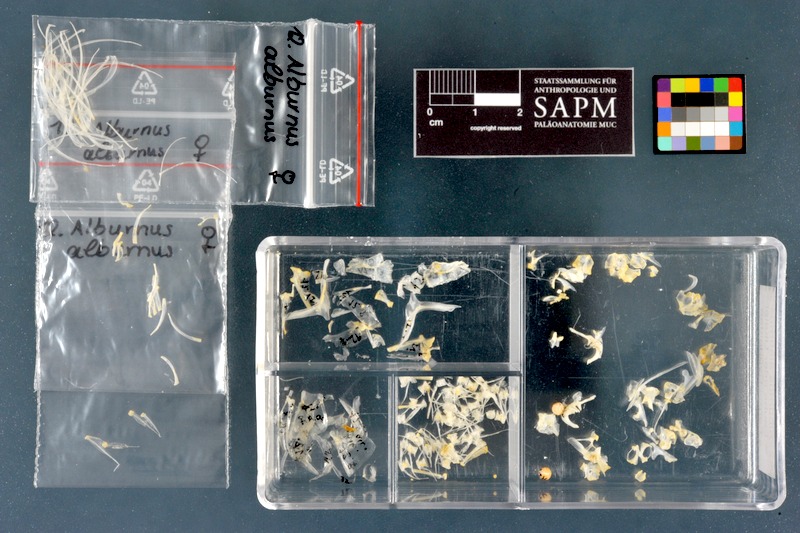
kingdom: Animalia
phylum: Chordata
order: Cypriniformes
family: Cyprinidae
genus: Alburnus
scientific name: Alburnus alburnus
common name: Bleak
